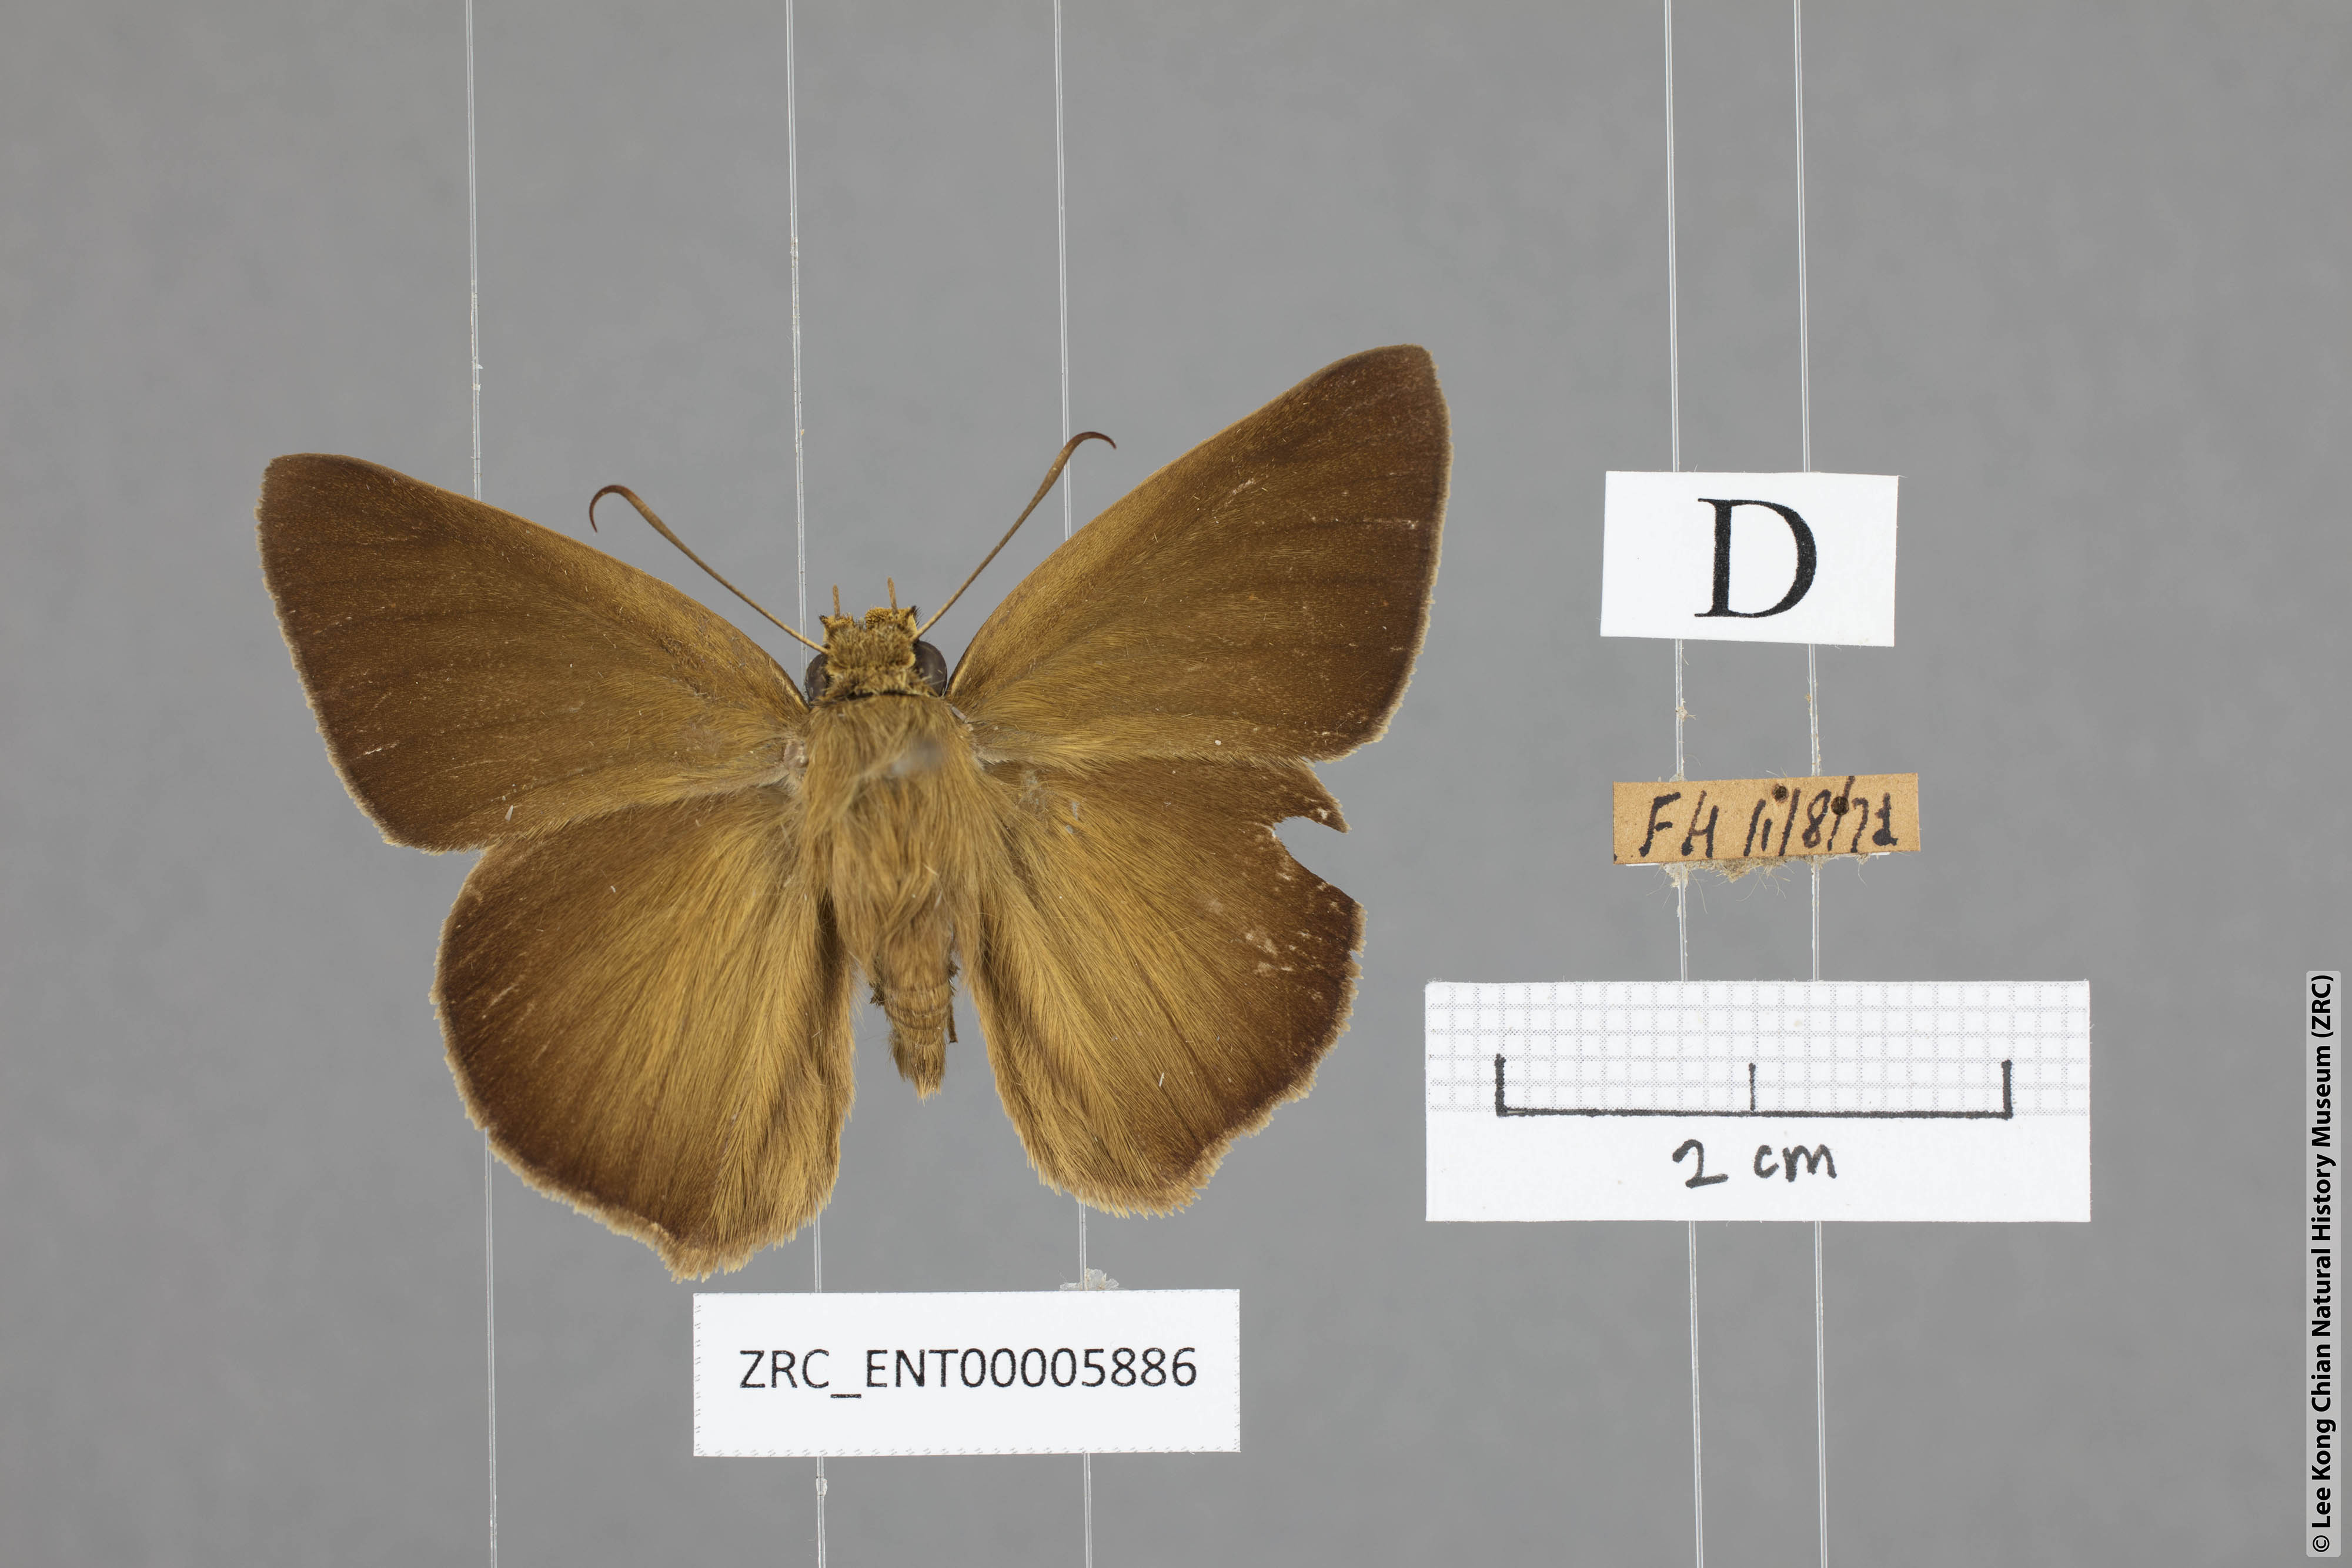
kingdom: Animalia
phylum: Arthropoda
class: Insecta
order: Lepidoptera
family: Hesperiidae
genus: Hasora
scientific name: Hasora myra
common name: Pale-tailed awl
